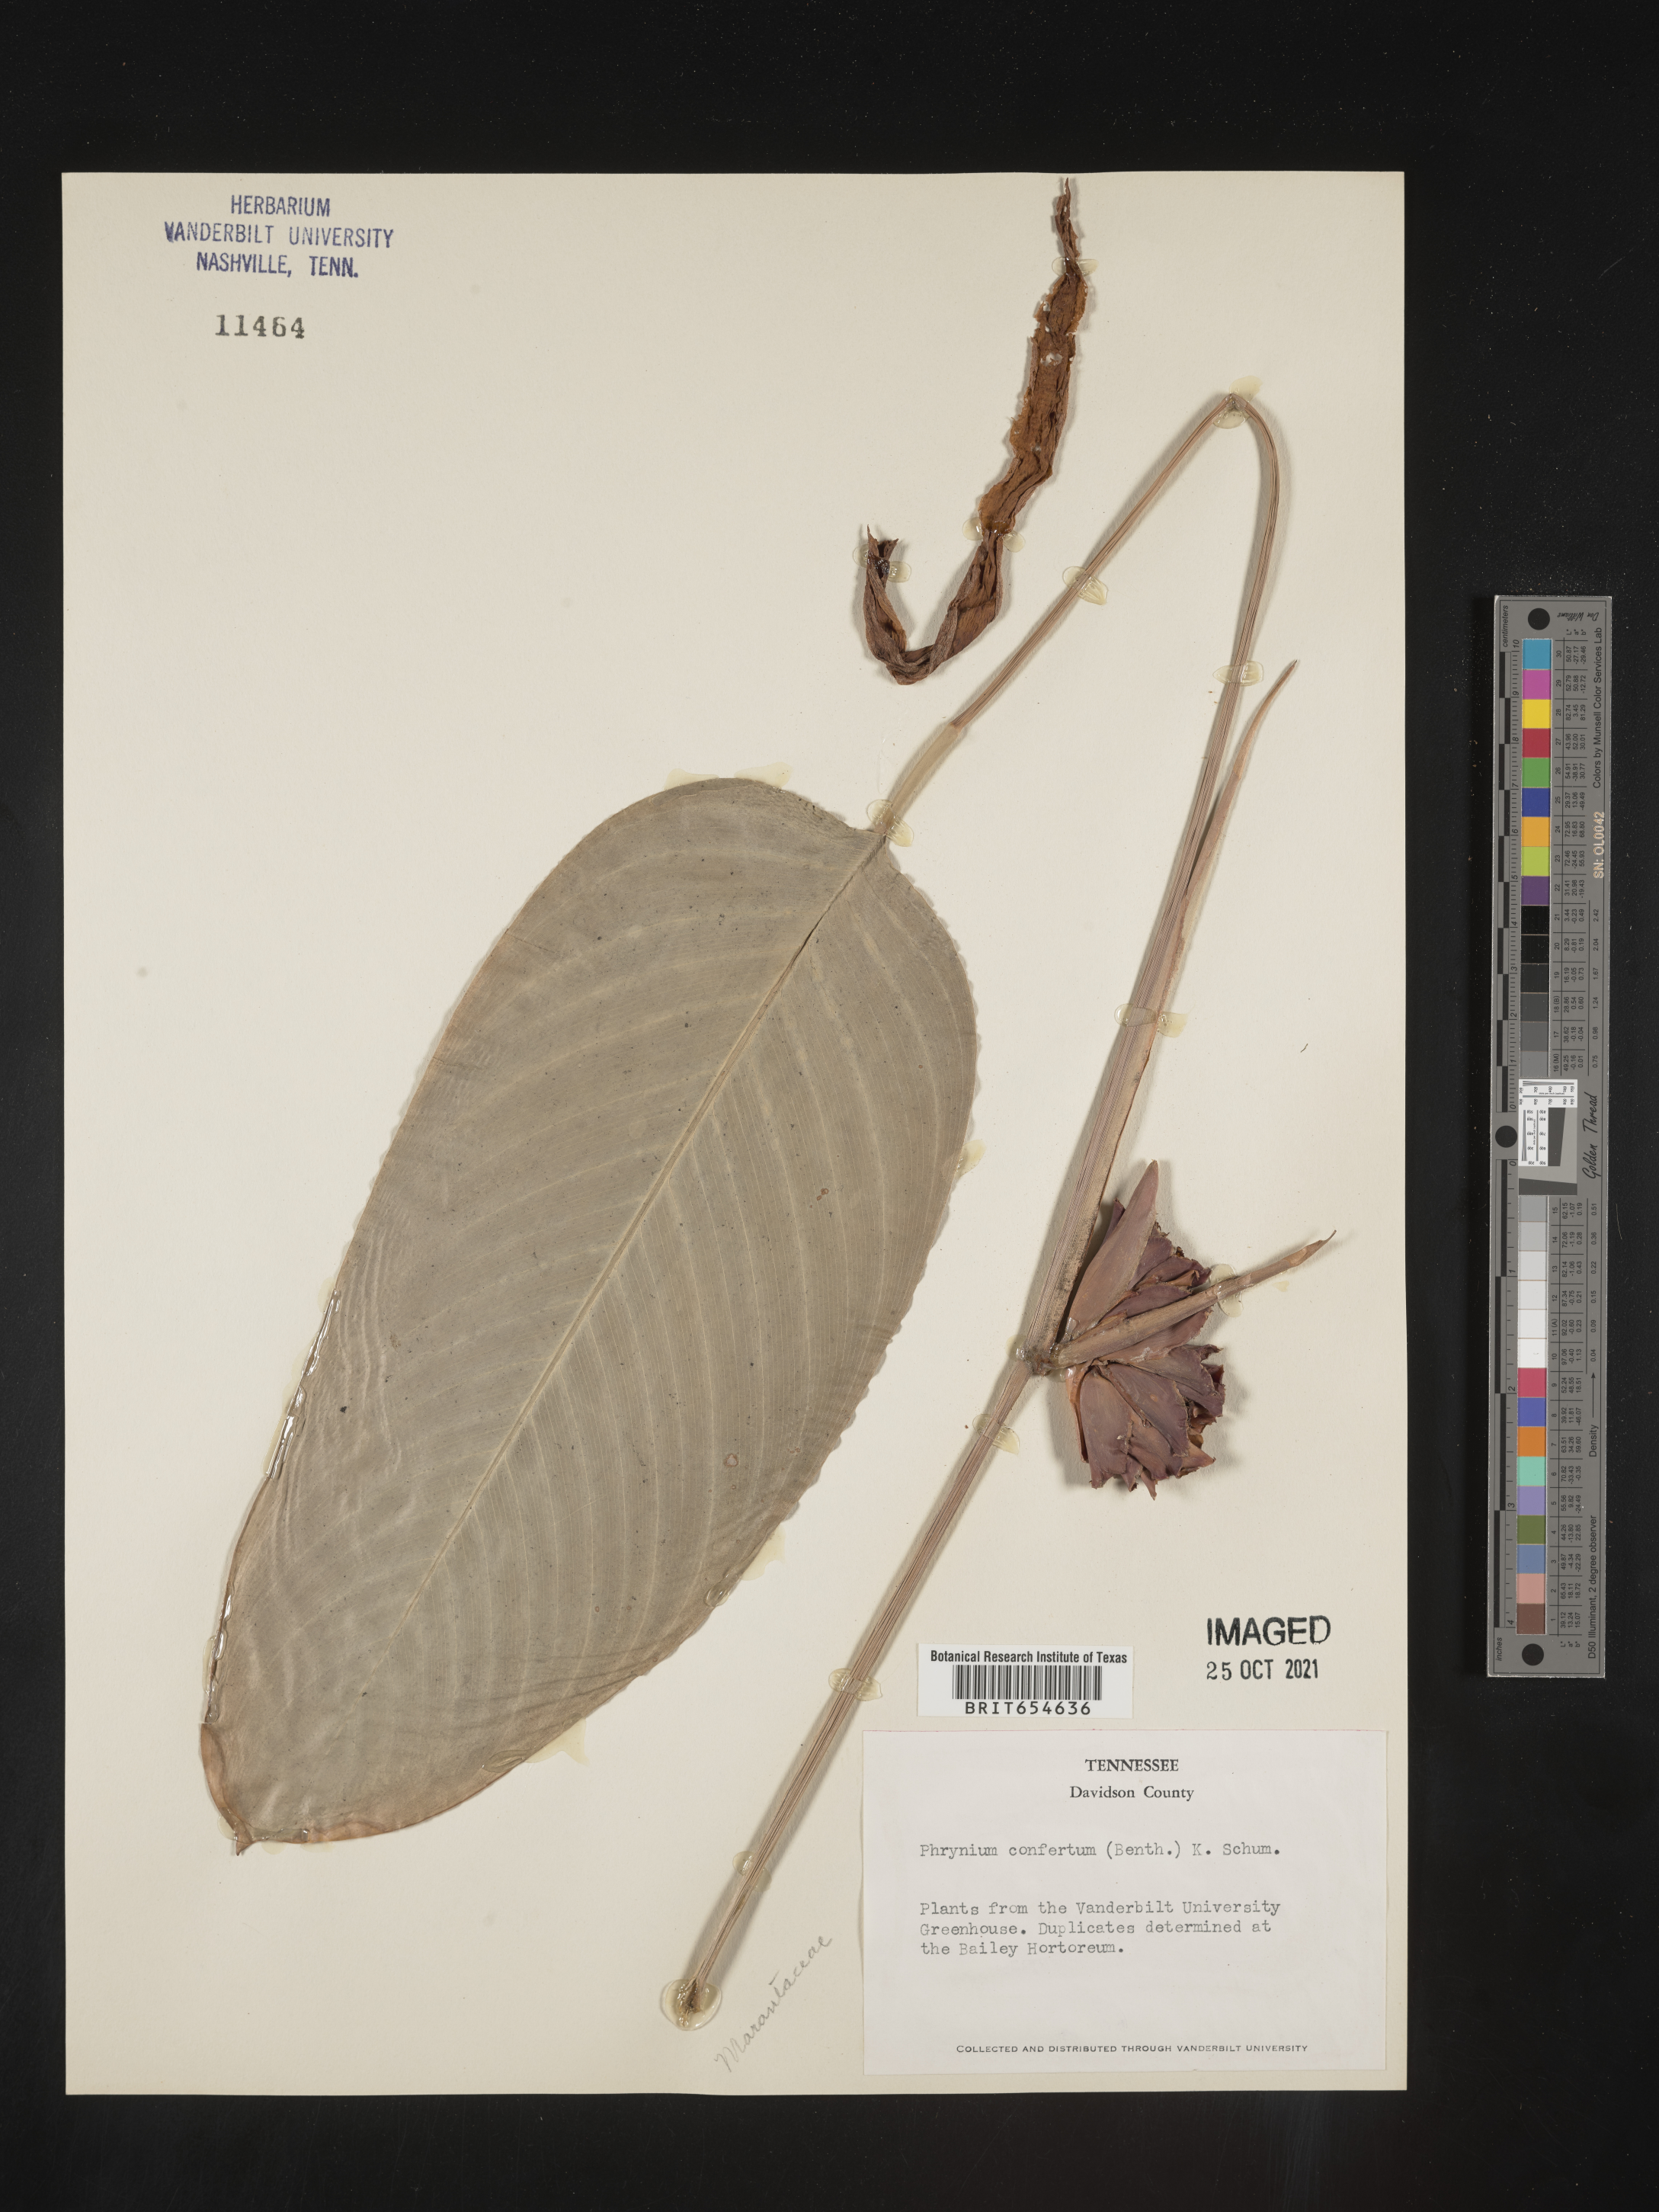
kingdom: Plantae
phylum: Tracheophyta
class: Liliopsida
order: Zingiberales
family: Marantaceae
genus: Phrynium
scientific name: Phrynium
